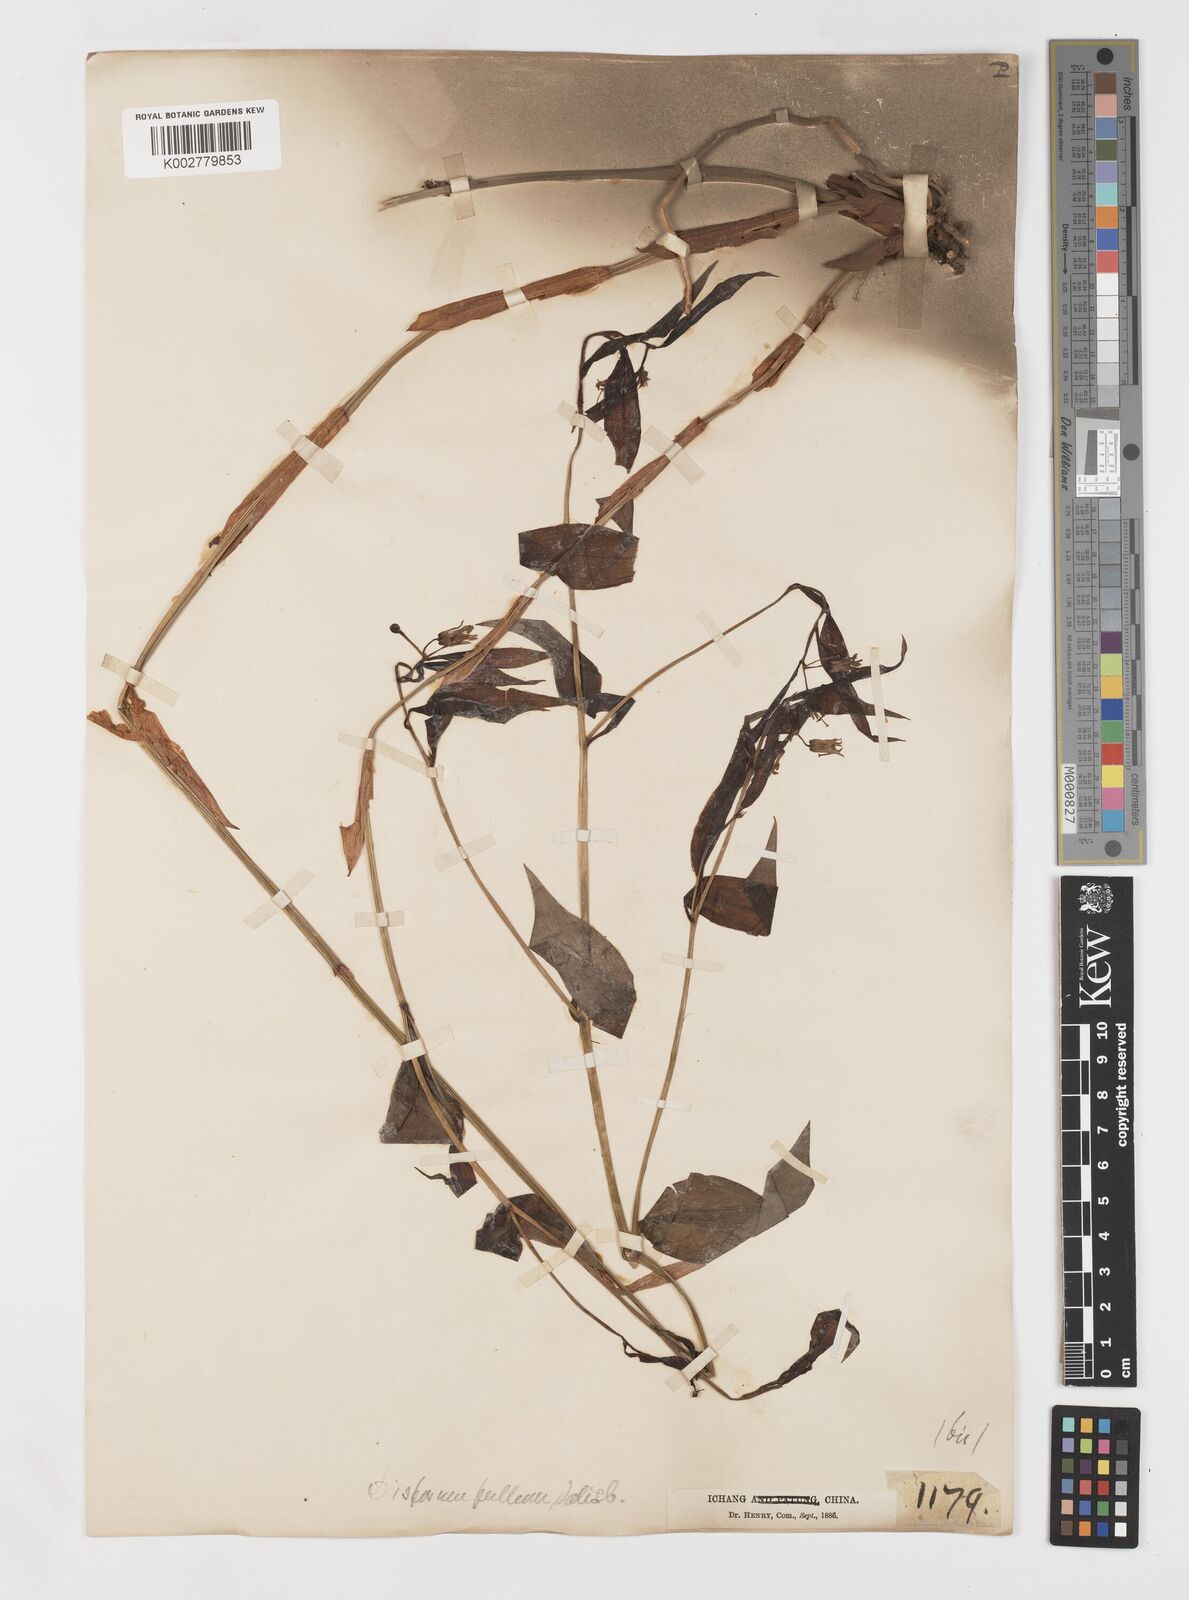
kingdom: Plantae
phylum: Tracheophyta
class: Liliopsida
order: Liliales
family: Colchicaceae
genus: Disporum
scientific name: Disporum sessile
